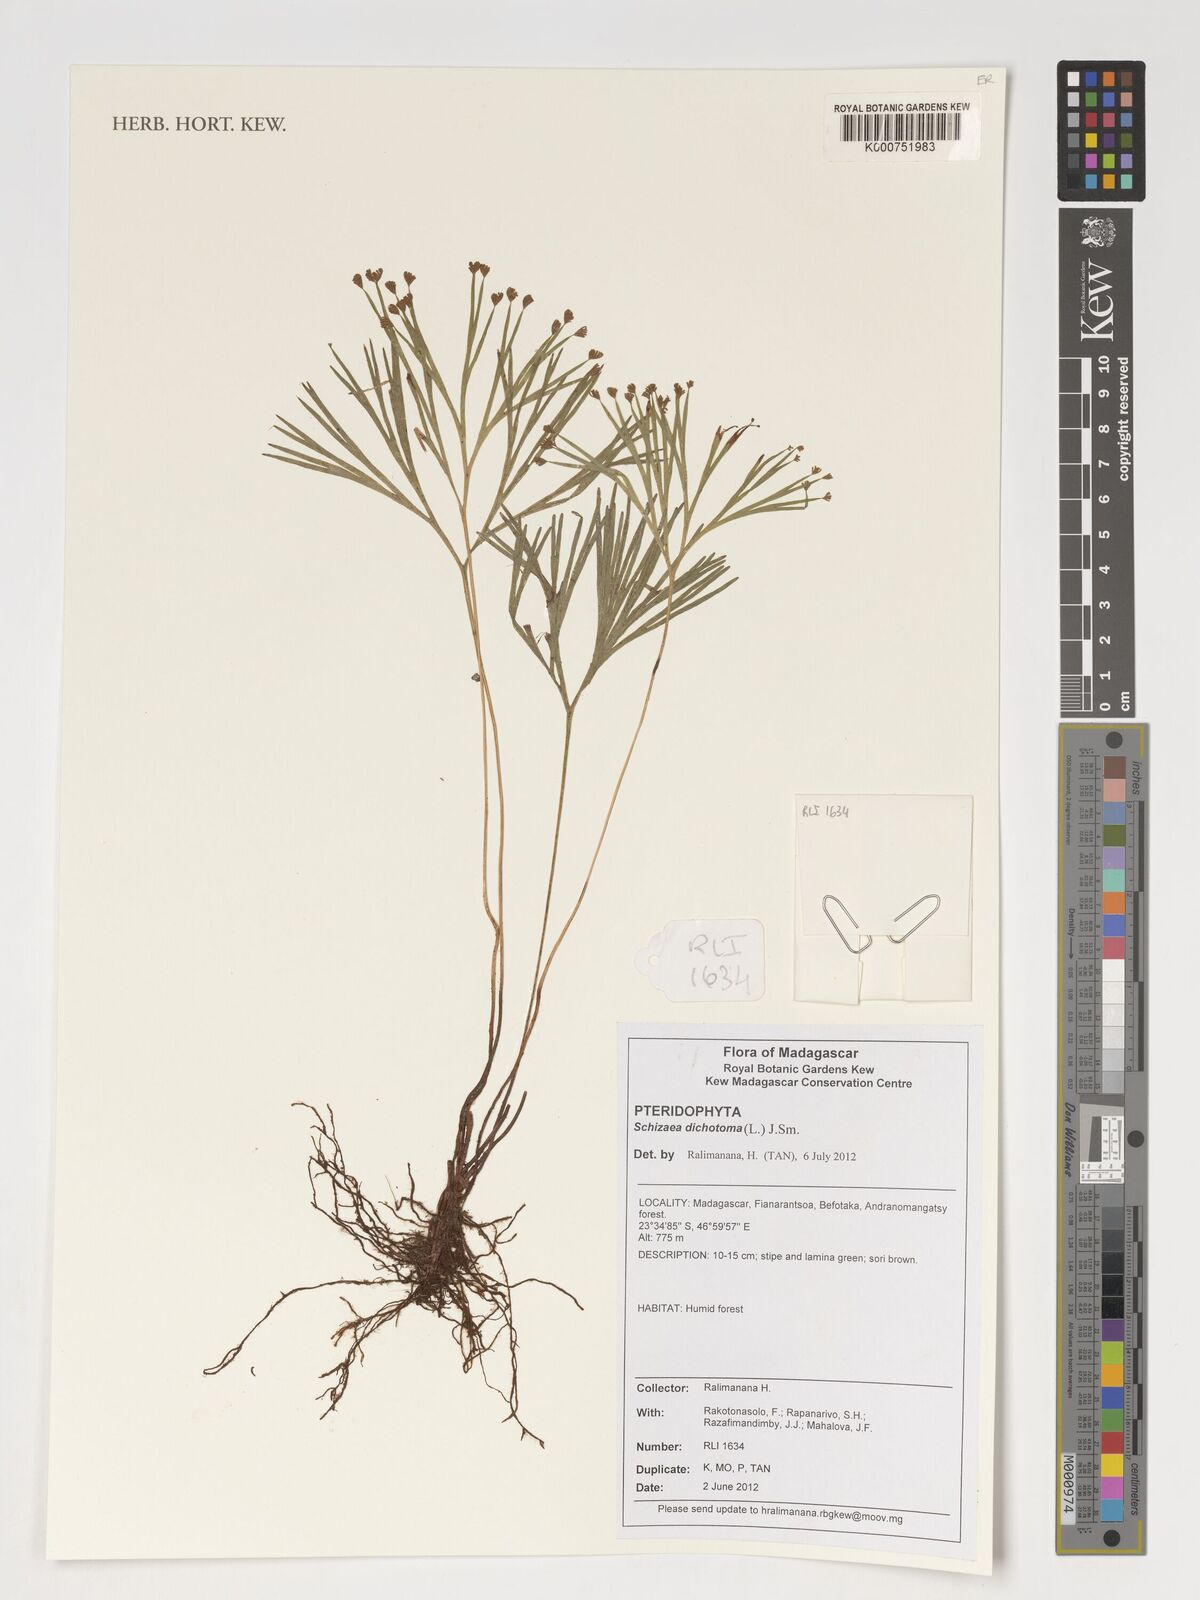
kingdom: Plantae
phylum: Tracheophyta
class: Polypodiopsida
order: Schizaeales
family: Schizaeaceae
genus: Schizaea
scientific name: Schizaea dichotoma
